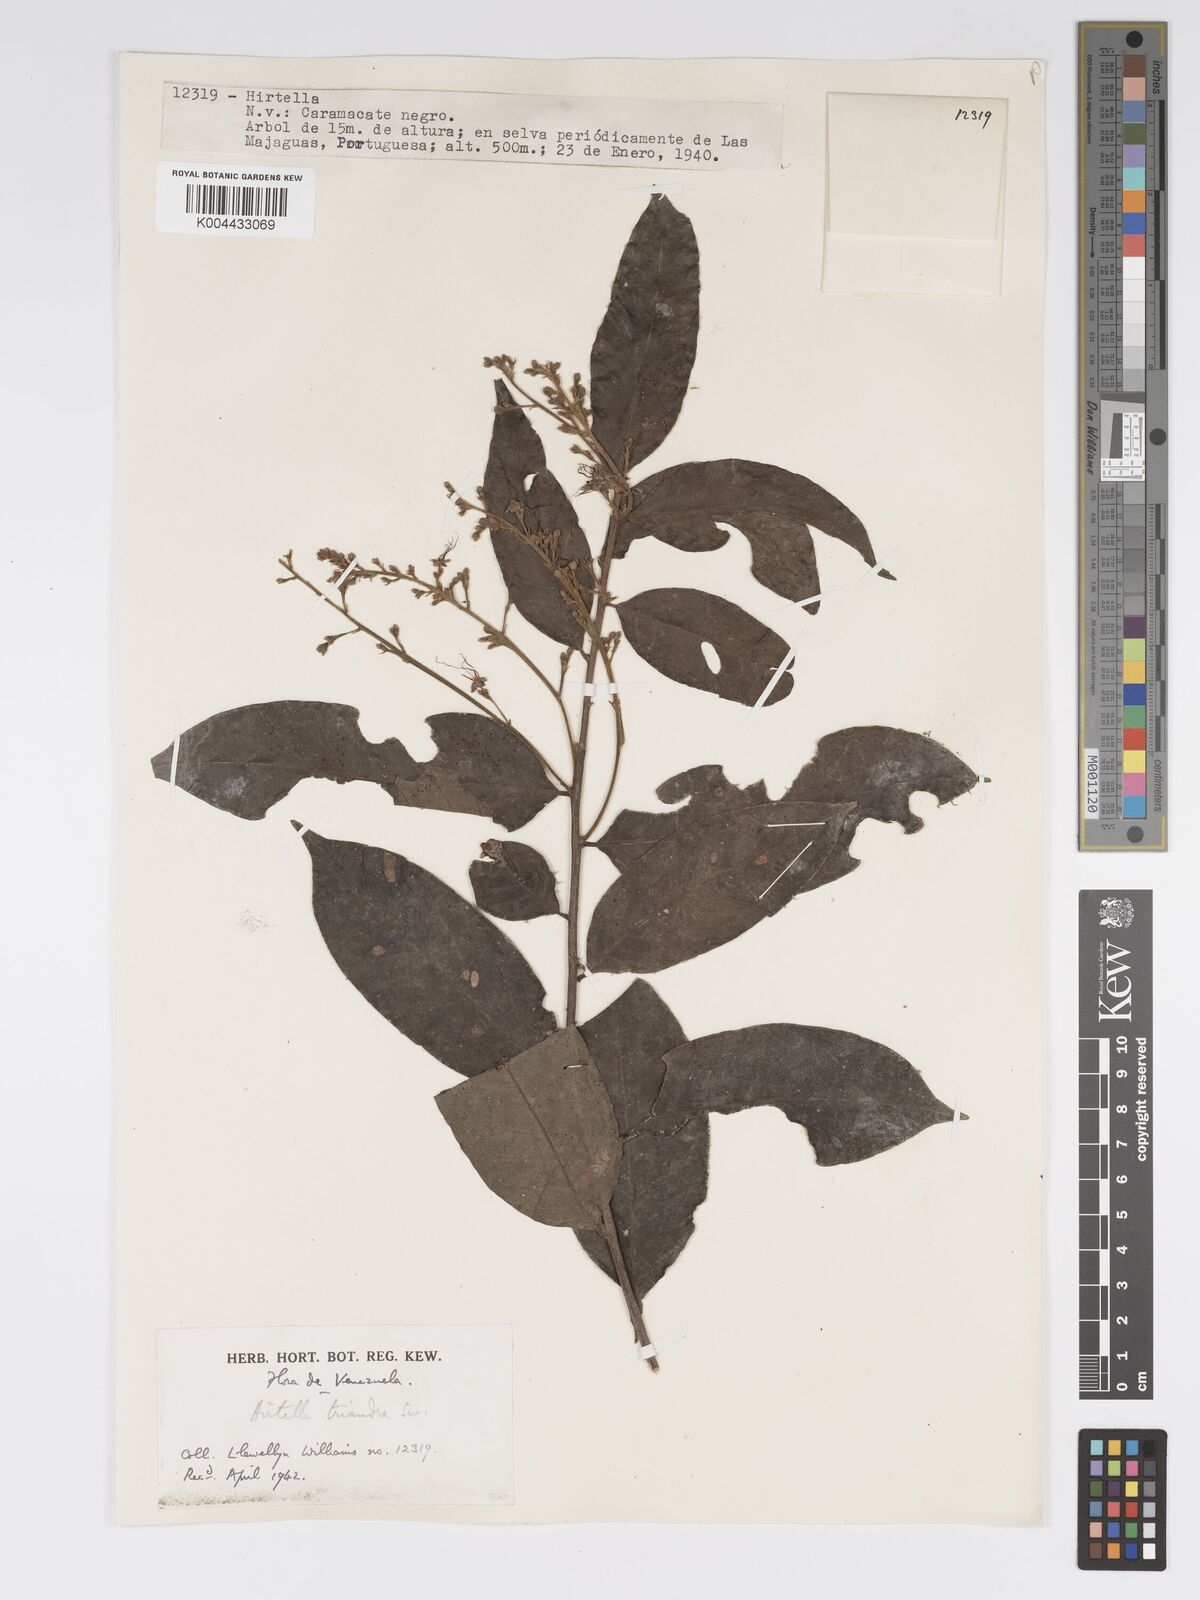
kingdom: Plantae
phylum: Tracheophyta
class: Magnoliopsida
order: Malpighiales
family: Chrysobalanaceae
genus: Hirtella
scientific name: Hirtella triandra
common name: Hairy plum
